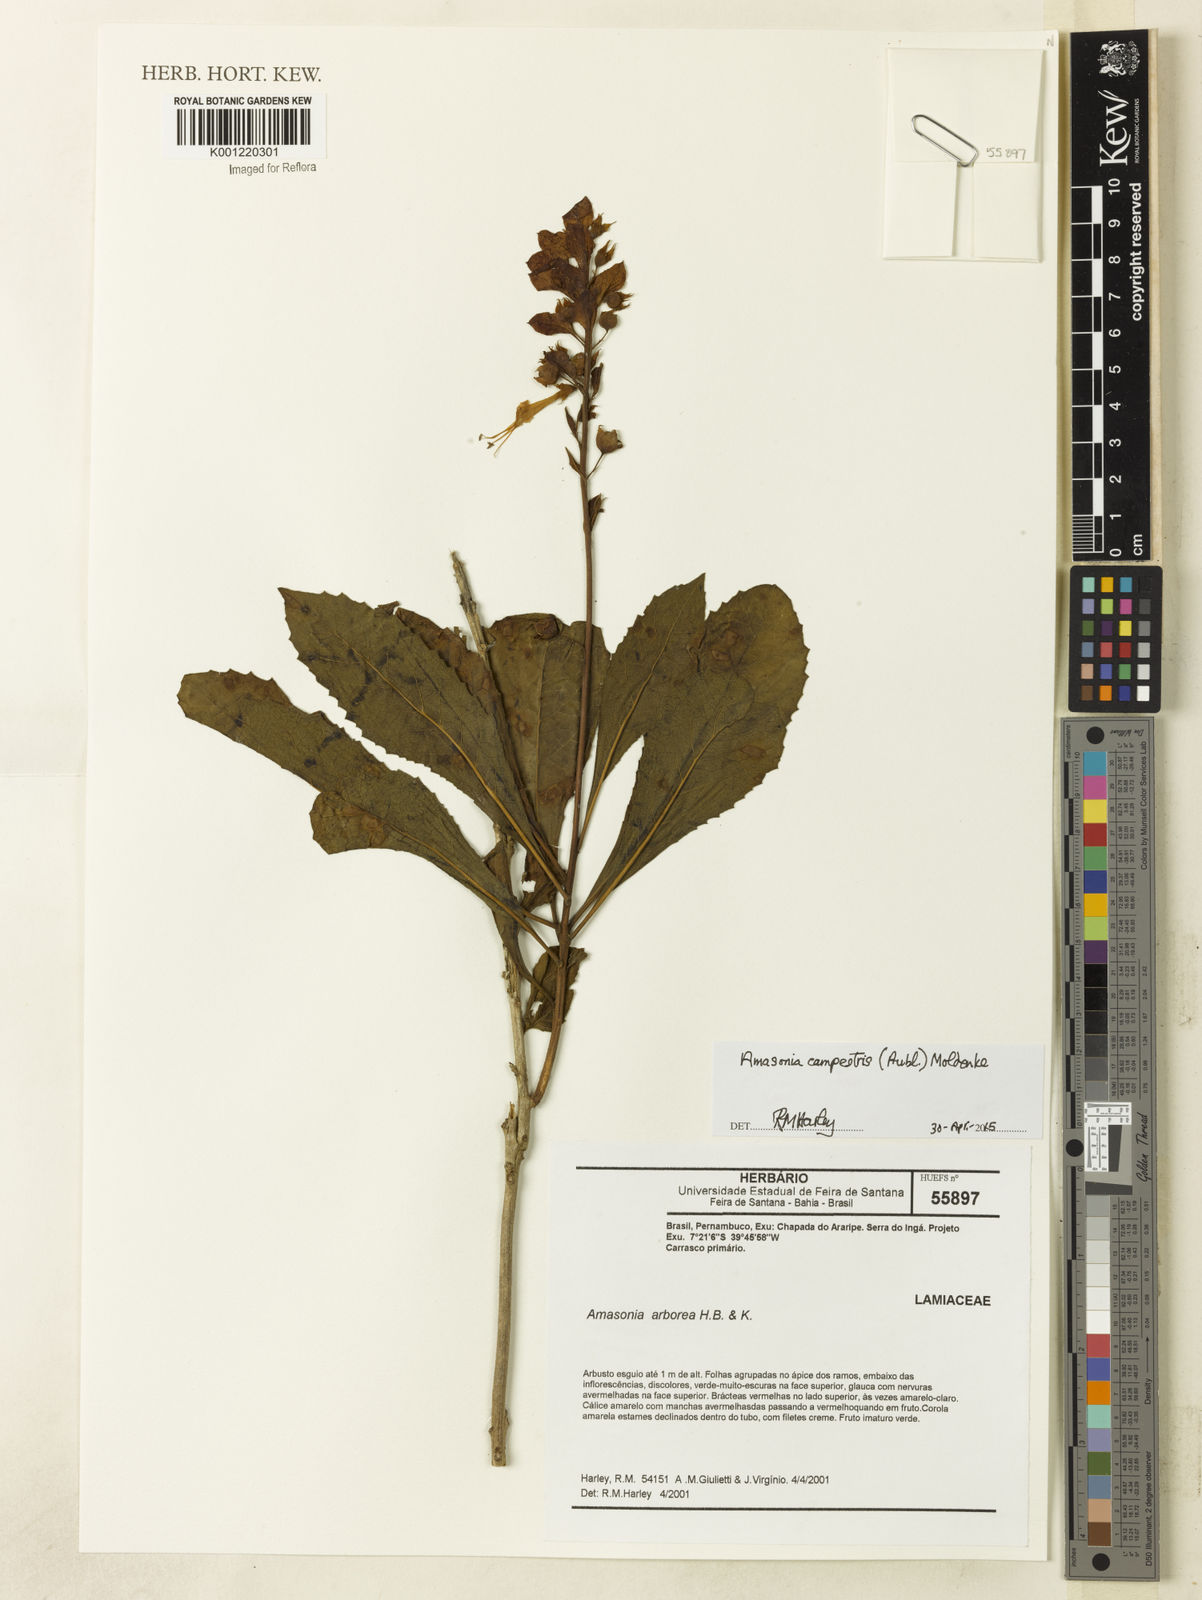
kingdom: Plantae
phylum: Tracheophyta
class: Magnoliopsida
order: Lamiales
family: Lamiaceae
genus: Amasonia
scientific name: Amasonia campestris
